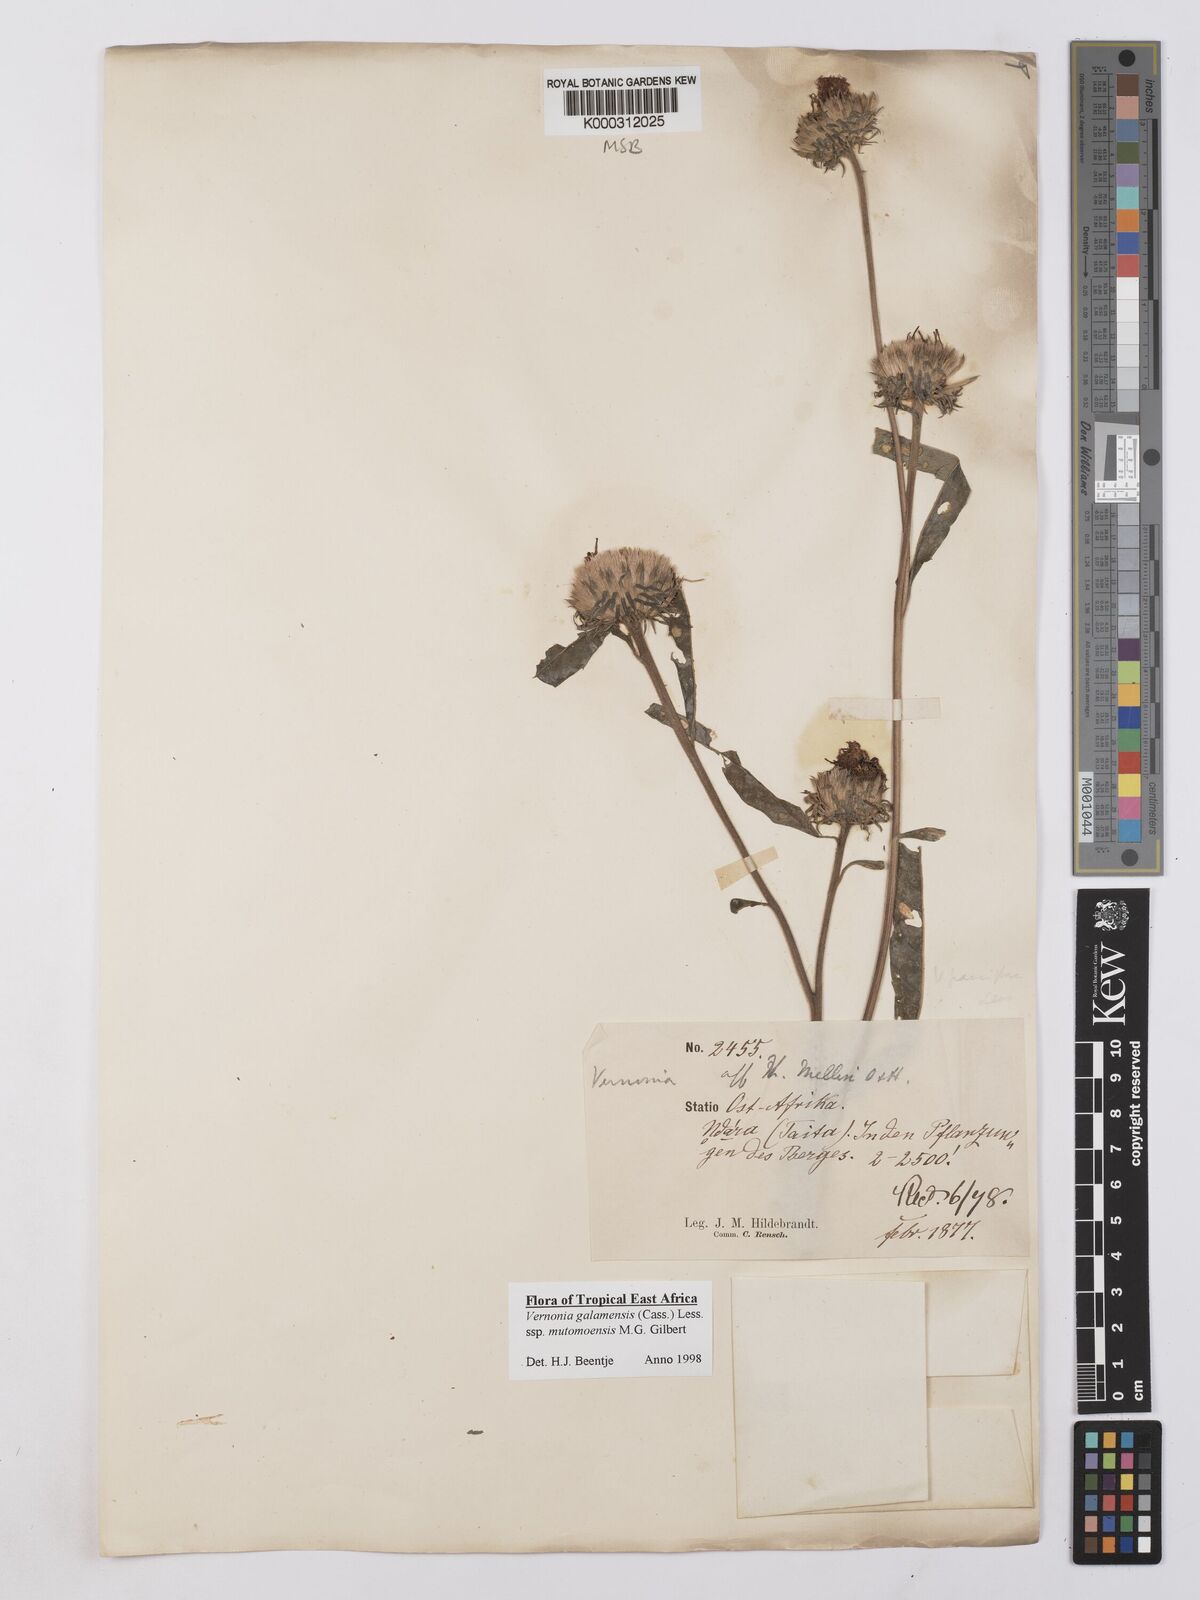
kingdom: Plantae
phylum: Tracheophyta
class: Magnoliopsida
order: Asterales
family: Asteraceae
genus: Vernonia
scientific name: Vernonia galamensis
